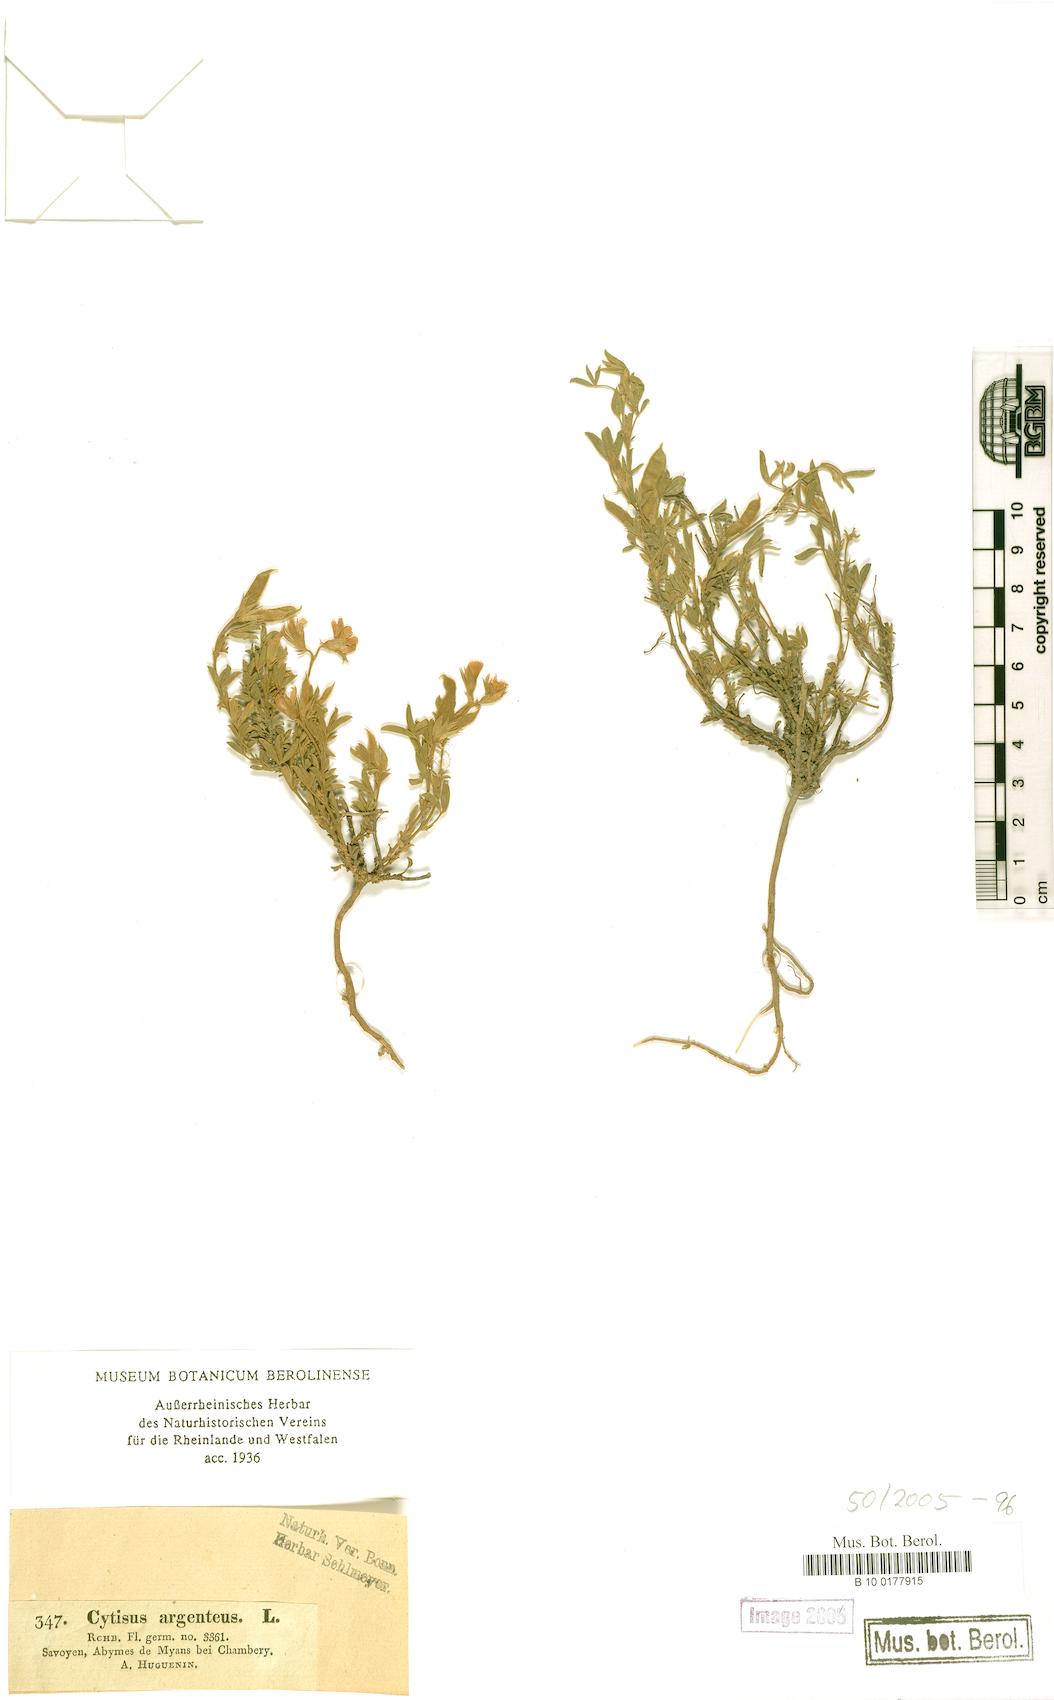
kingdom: Plantae
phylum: Tracheophyta
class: Magnoliopsida
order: Fabales
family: Fabaceae
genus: Argyrolobium
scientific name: Argyrolobium zanonii
